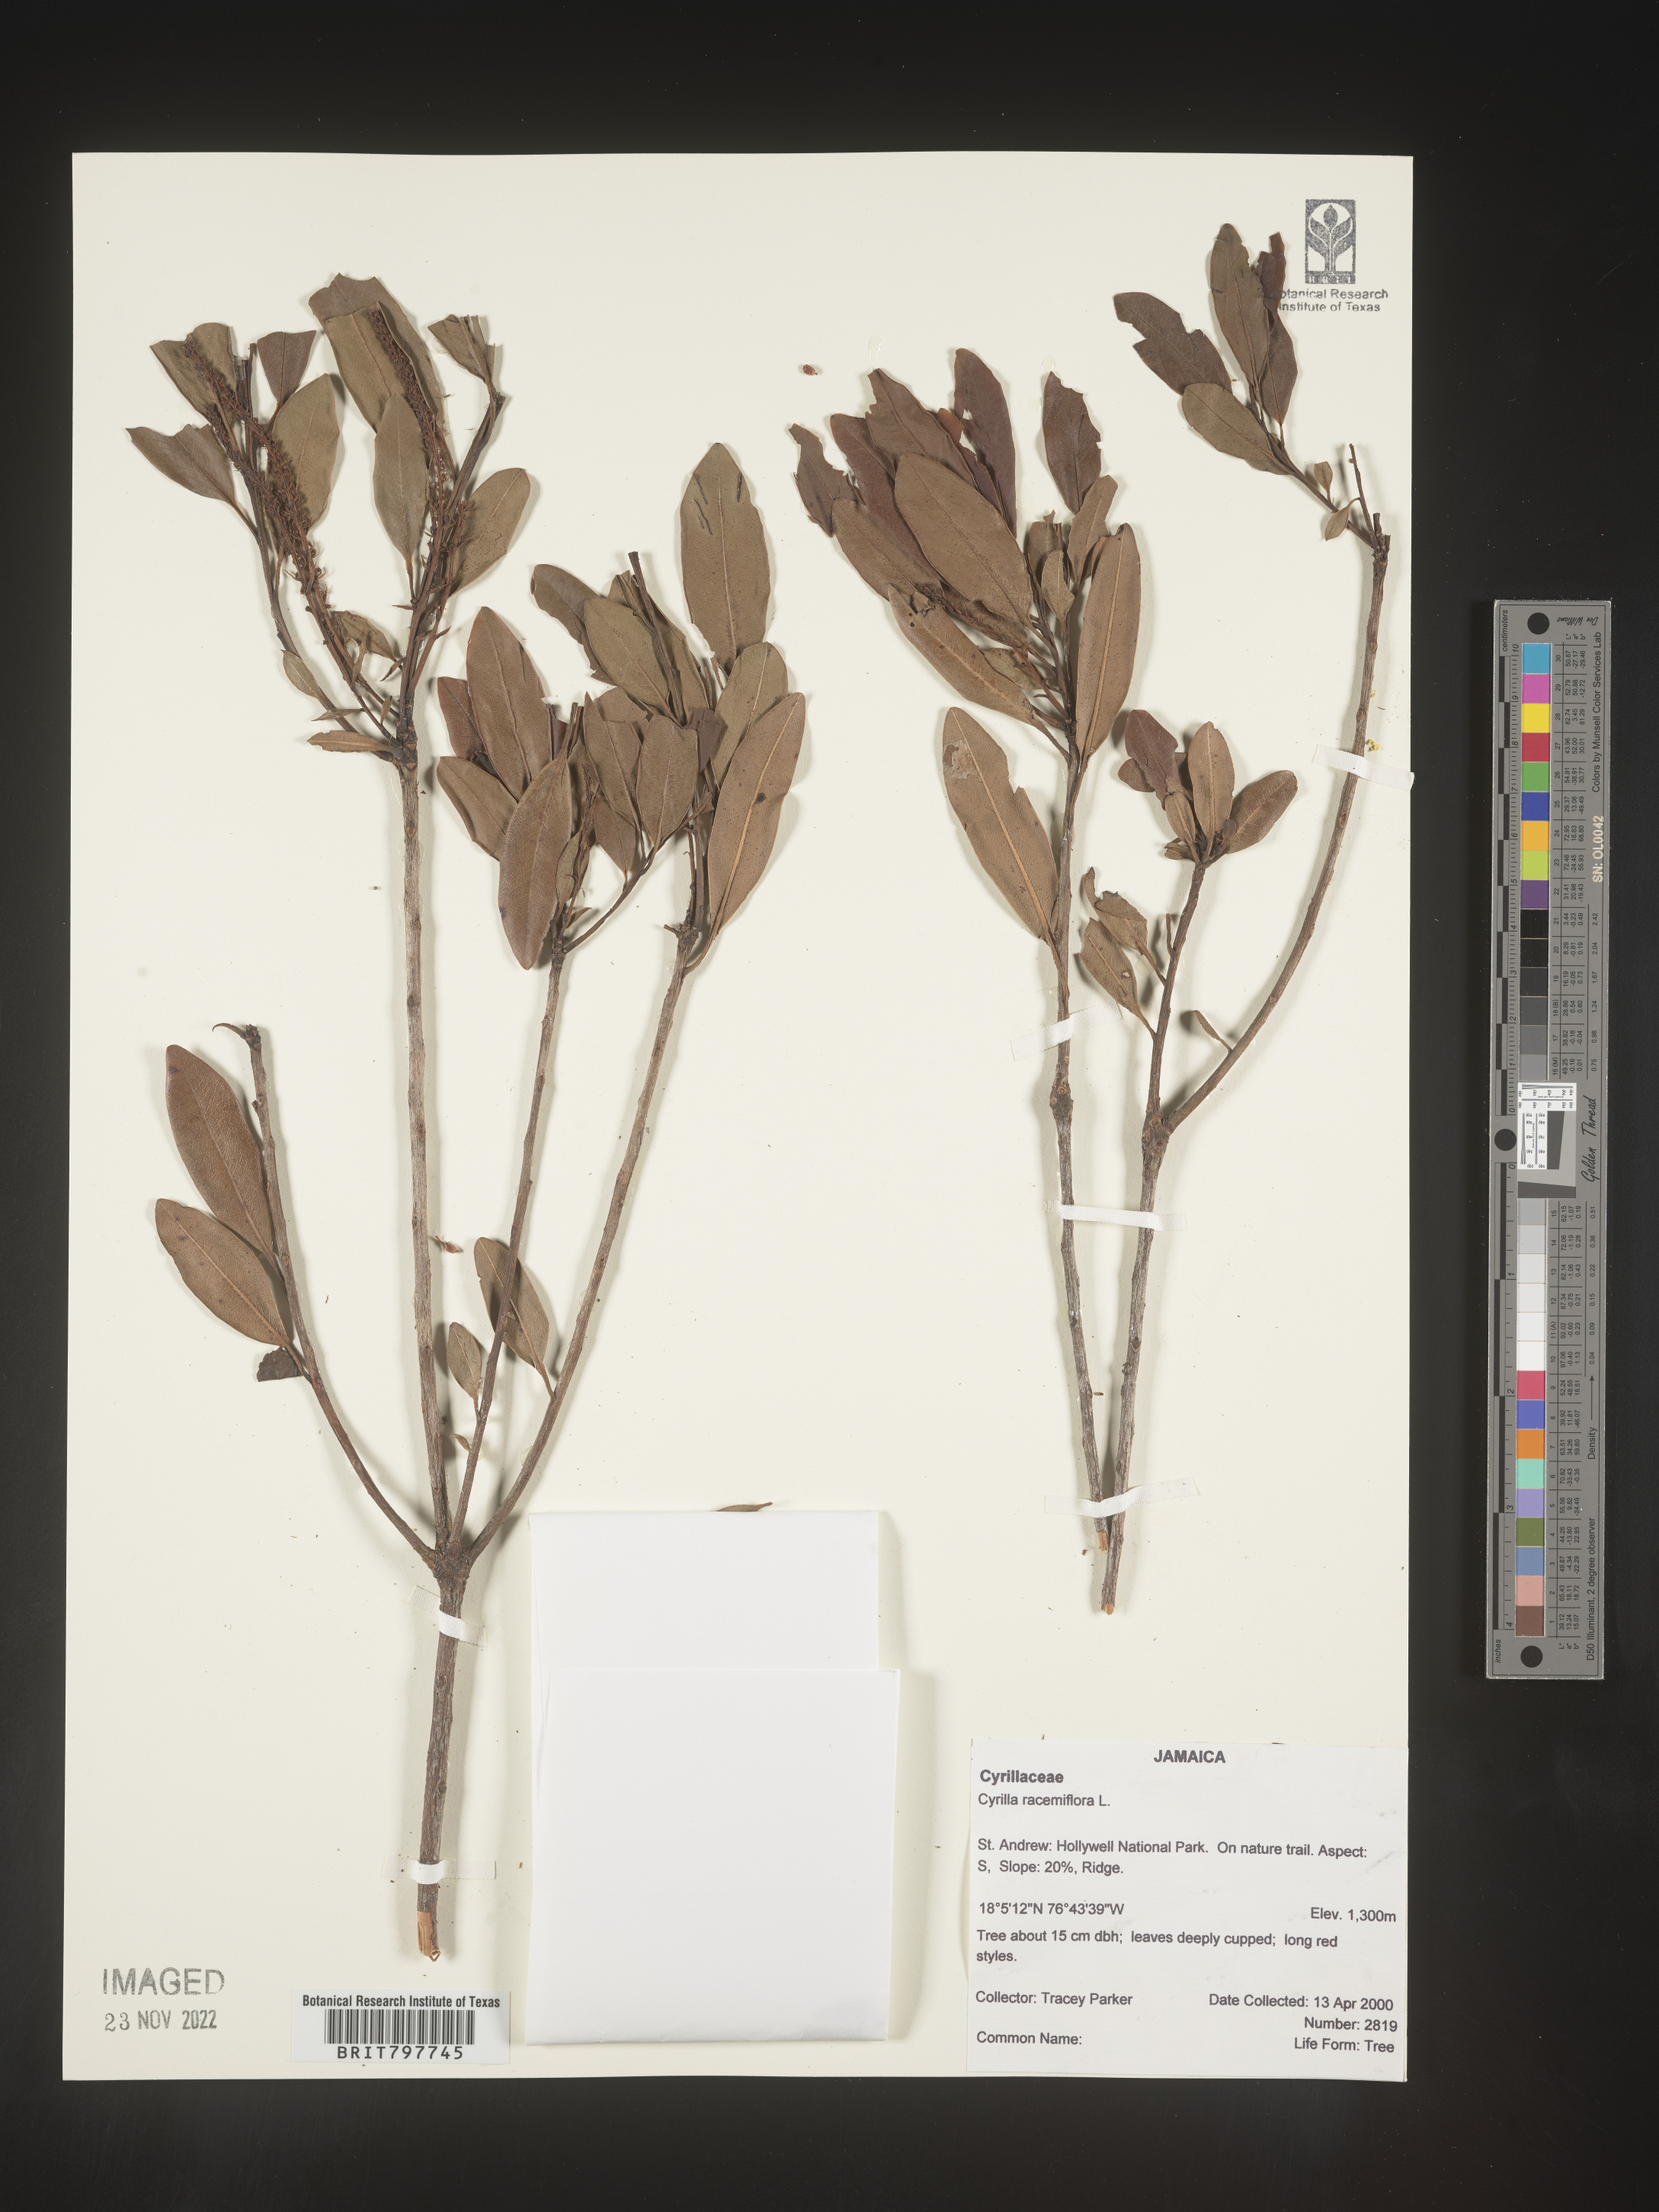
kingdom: Plantae
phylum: Tracheophyta
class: Magnoliopsida
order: Ericales
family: Cyrillaceae
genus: Cyrilla
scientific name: Cyrilla
